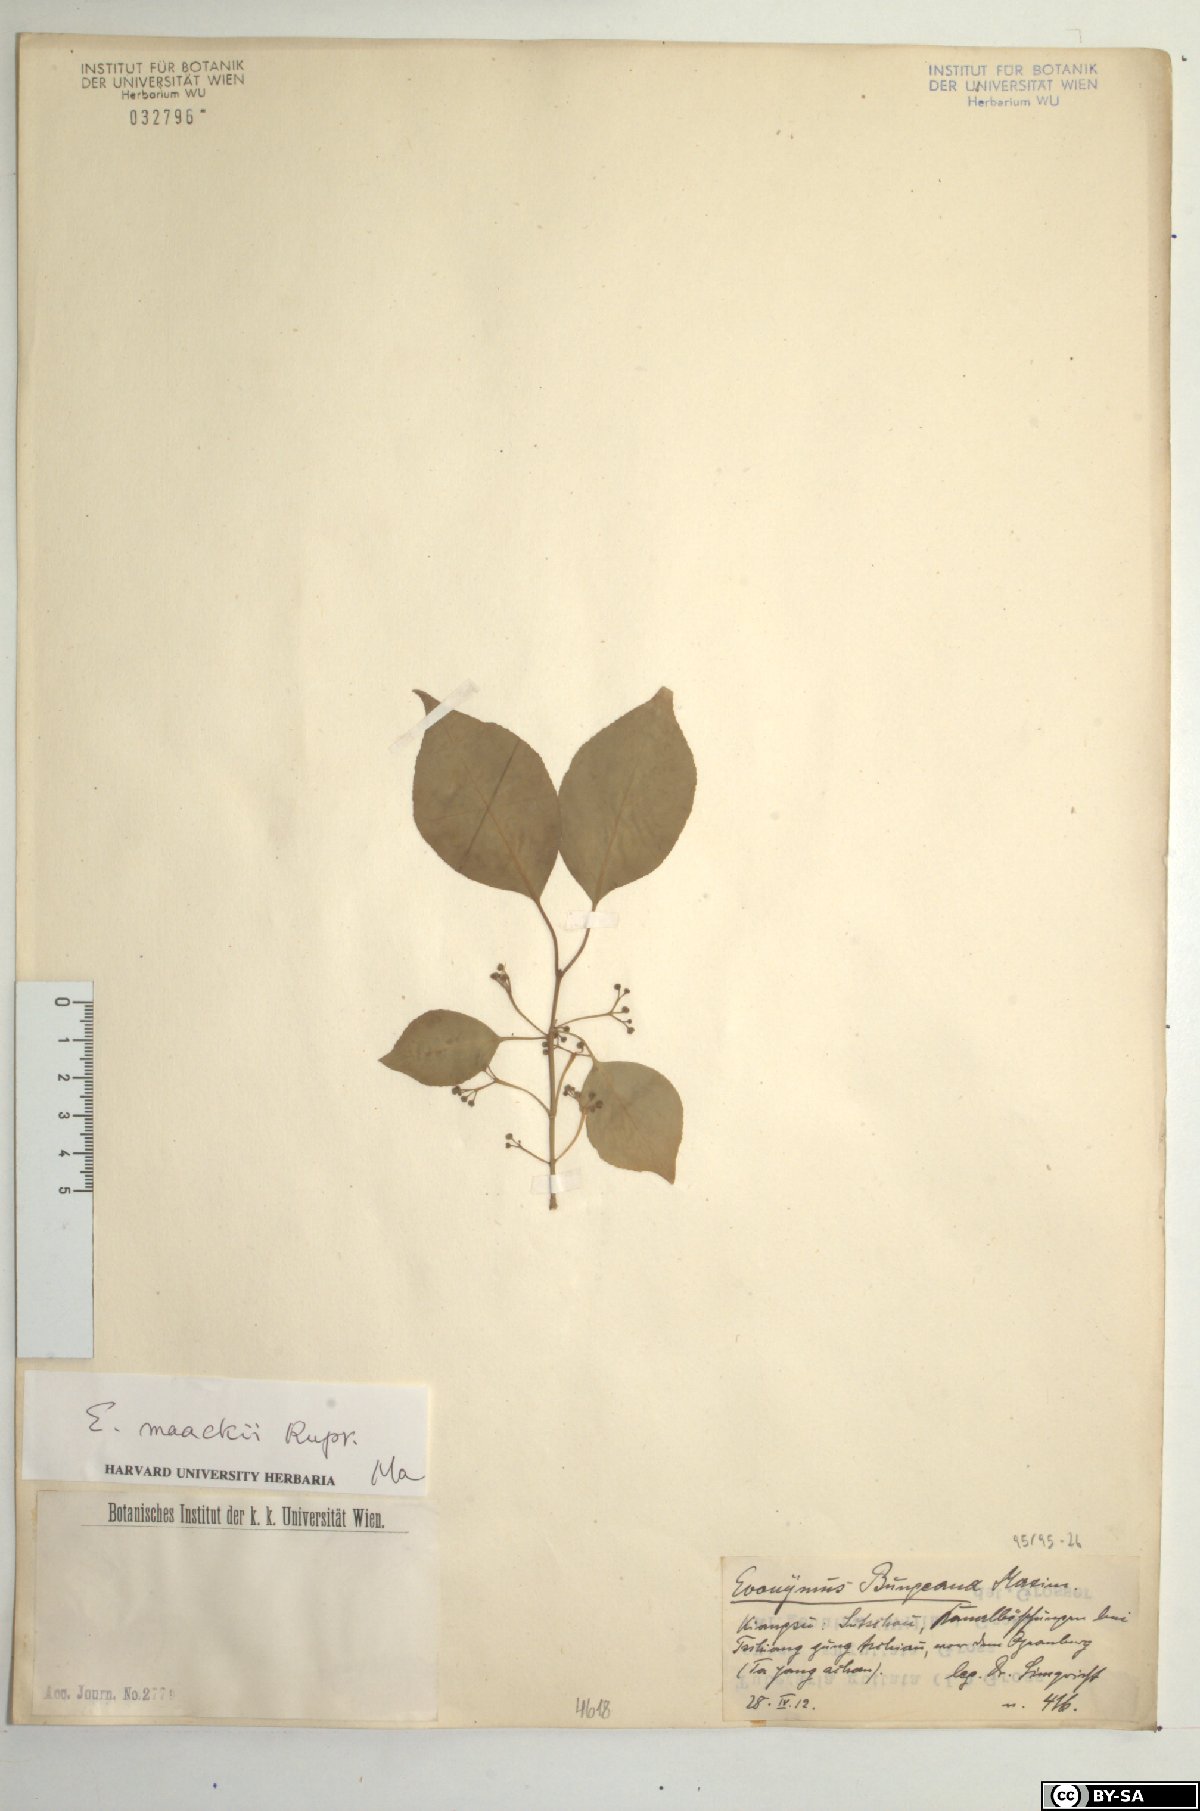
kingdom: Plantae
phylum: Tracheophyta
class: Magnoliopsida
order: Celastrales
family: Celastraceae
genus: Euonymus
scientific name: Euonymus maackii
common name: Hamilton's spindletree
